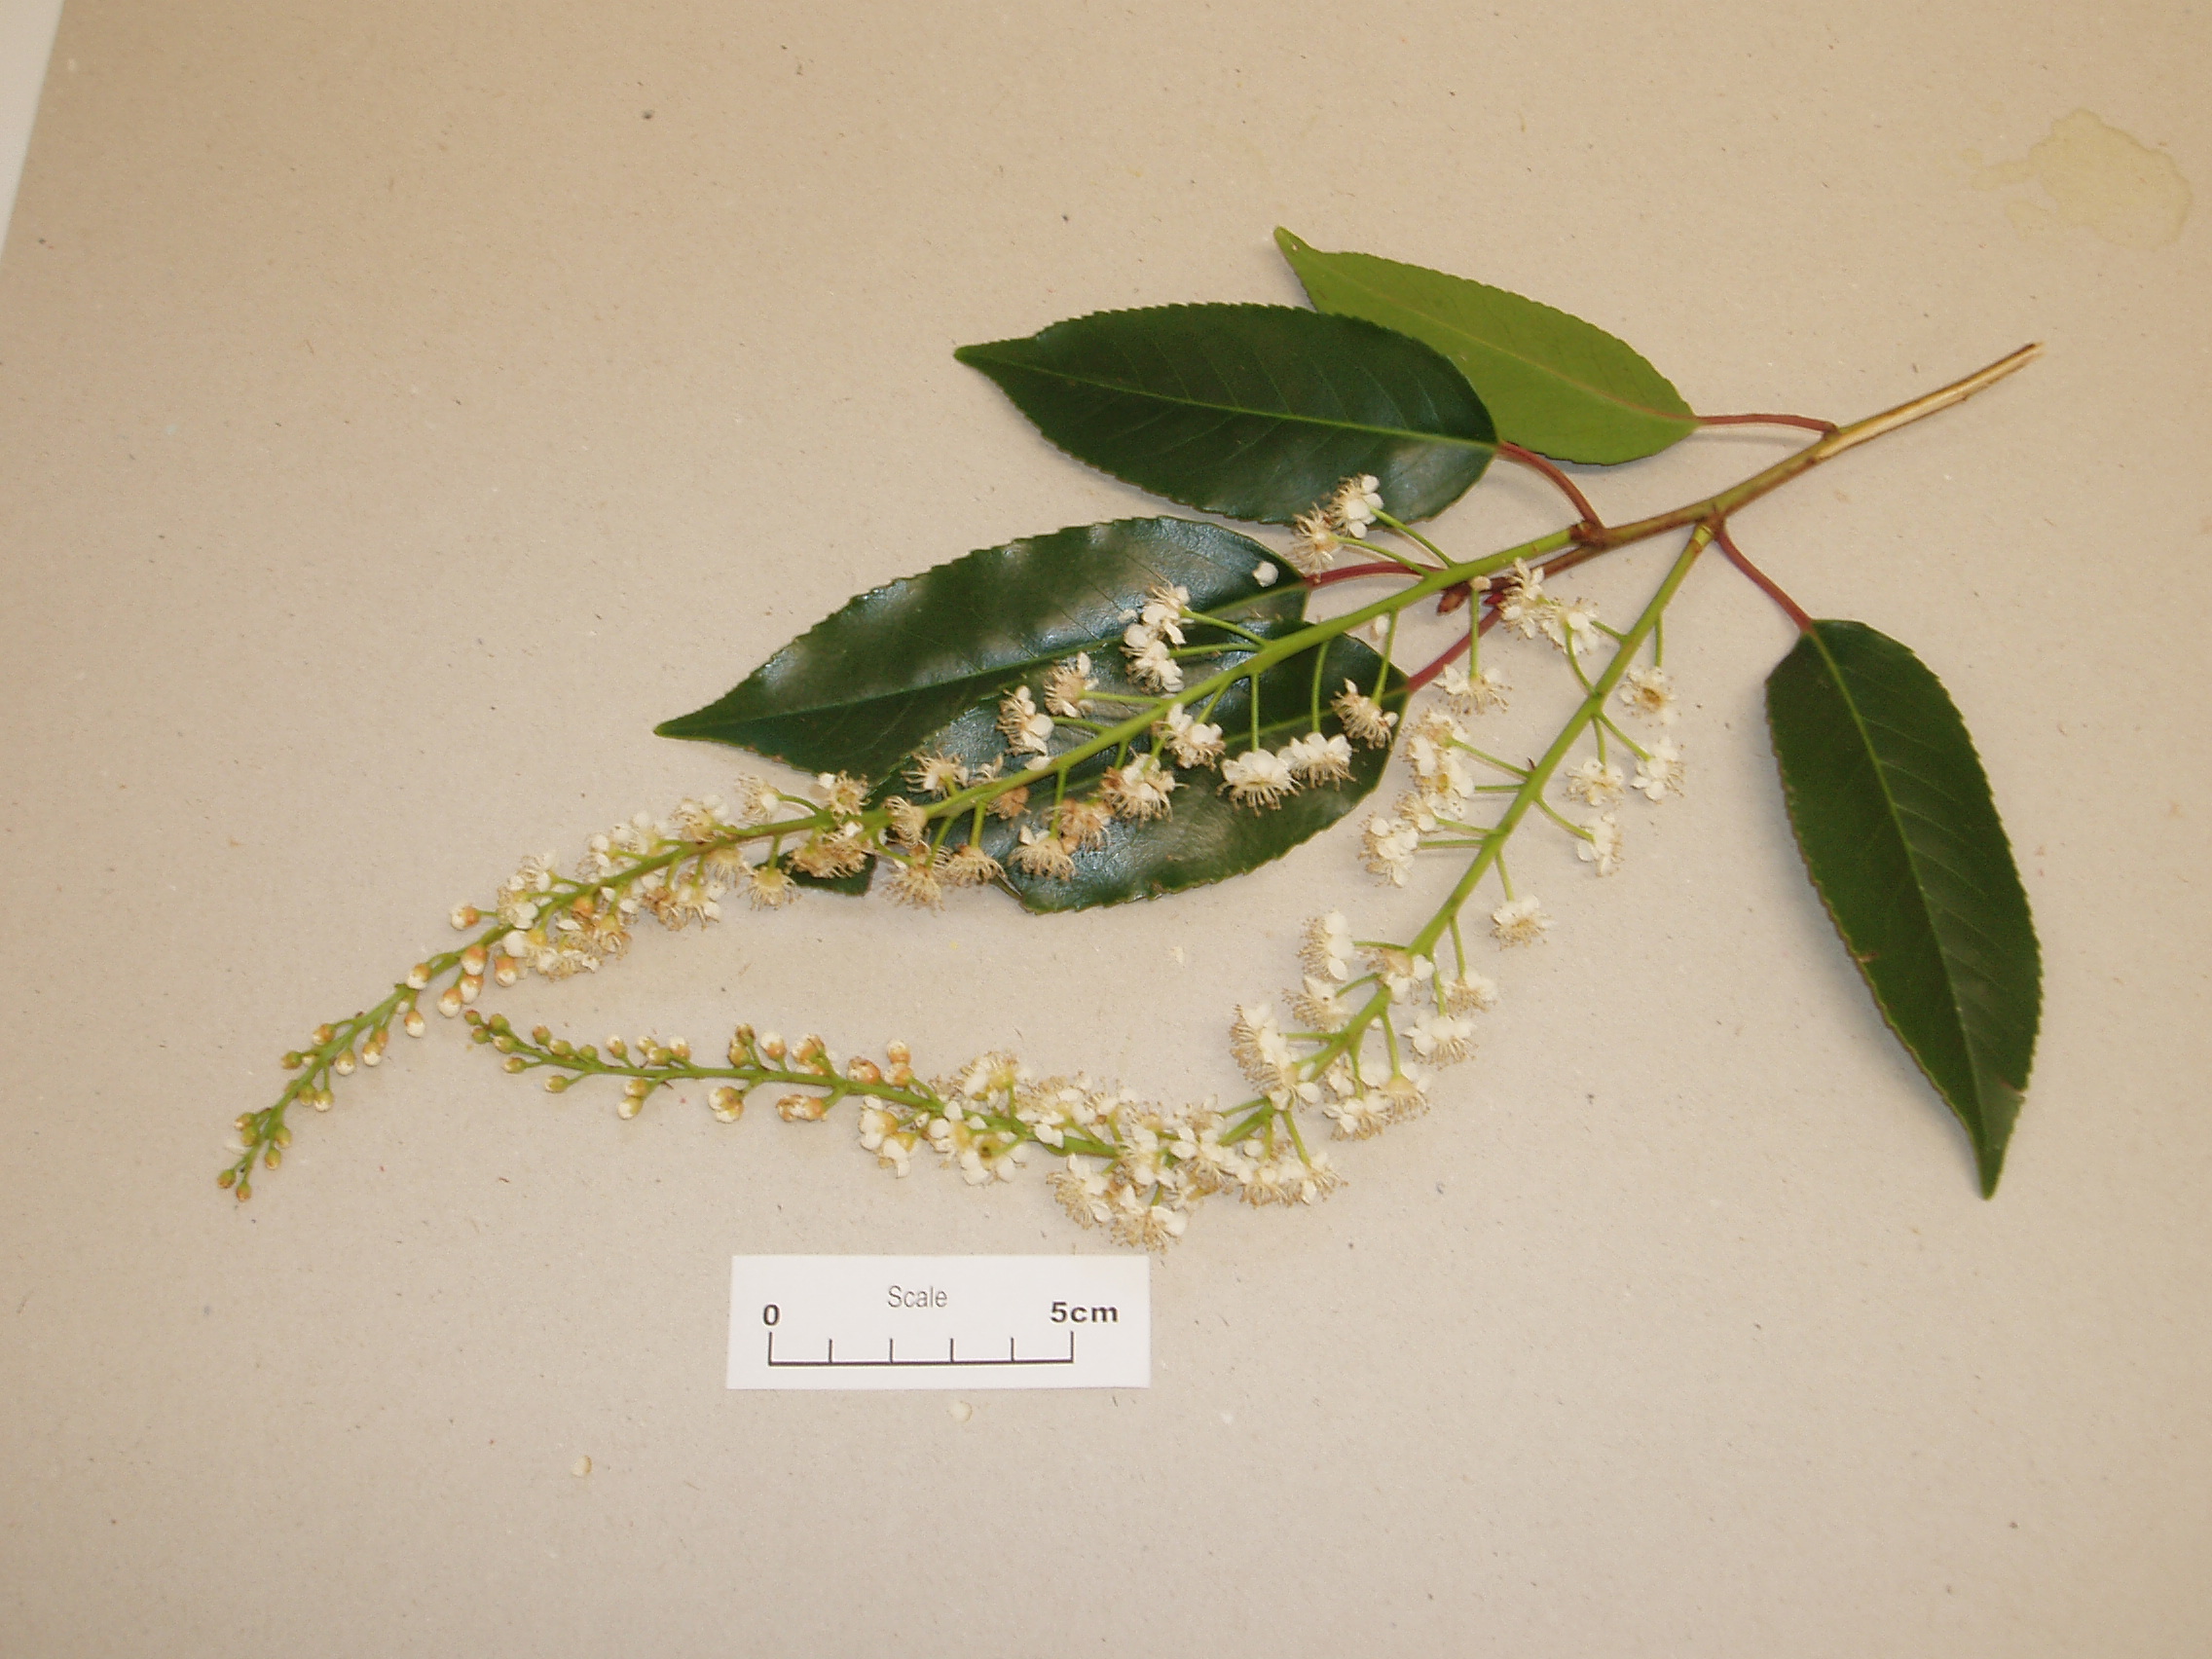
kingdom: Plantae
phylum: Tracheophyta
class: Magnoliopsida
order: Rosales
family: Rosaceae
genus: Prunus
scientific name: Prunus lusitanica
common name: Portugal laurel
